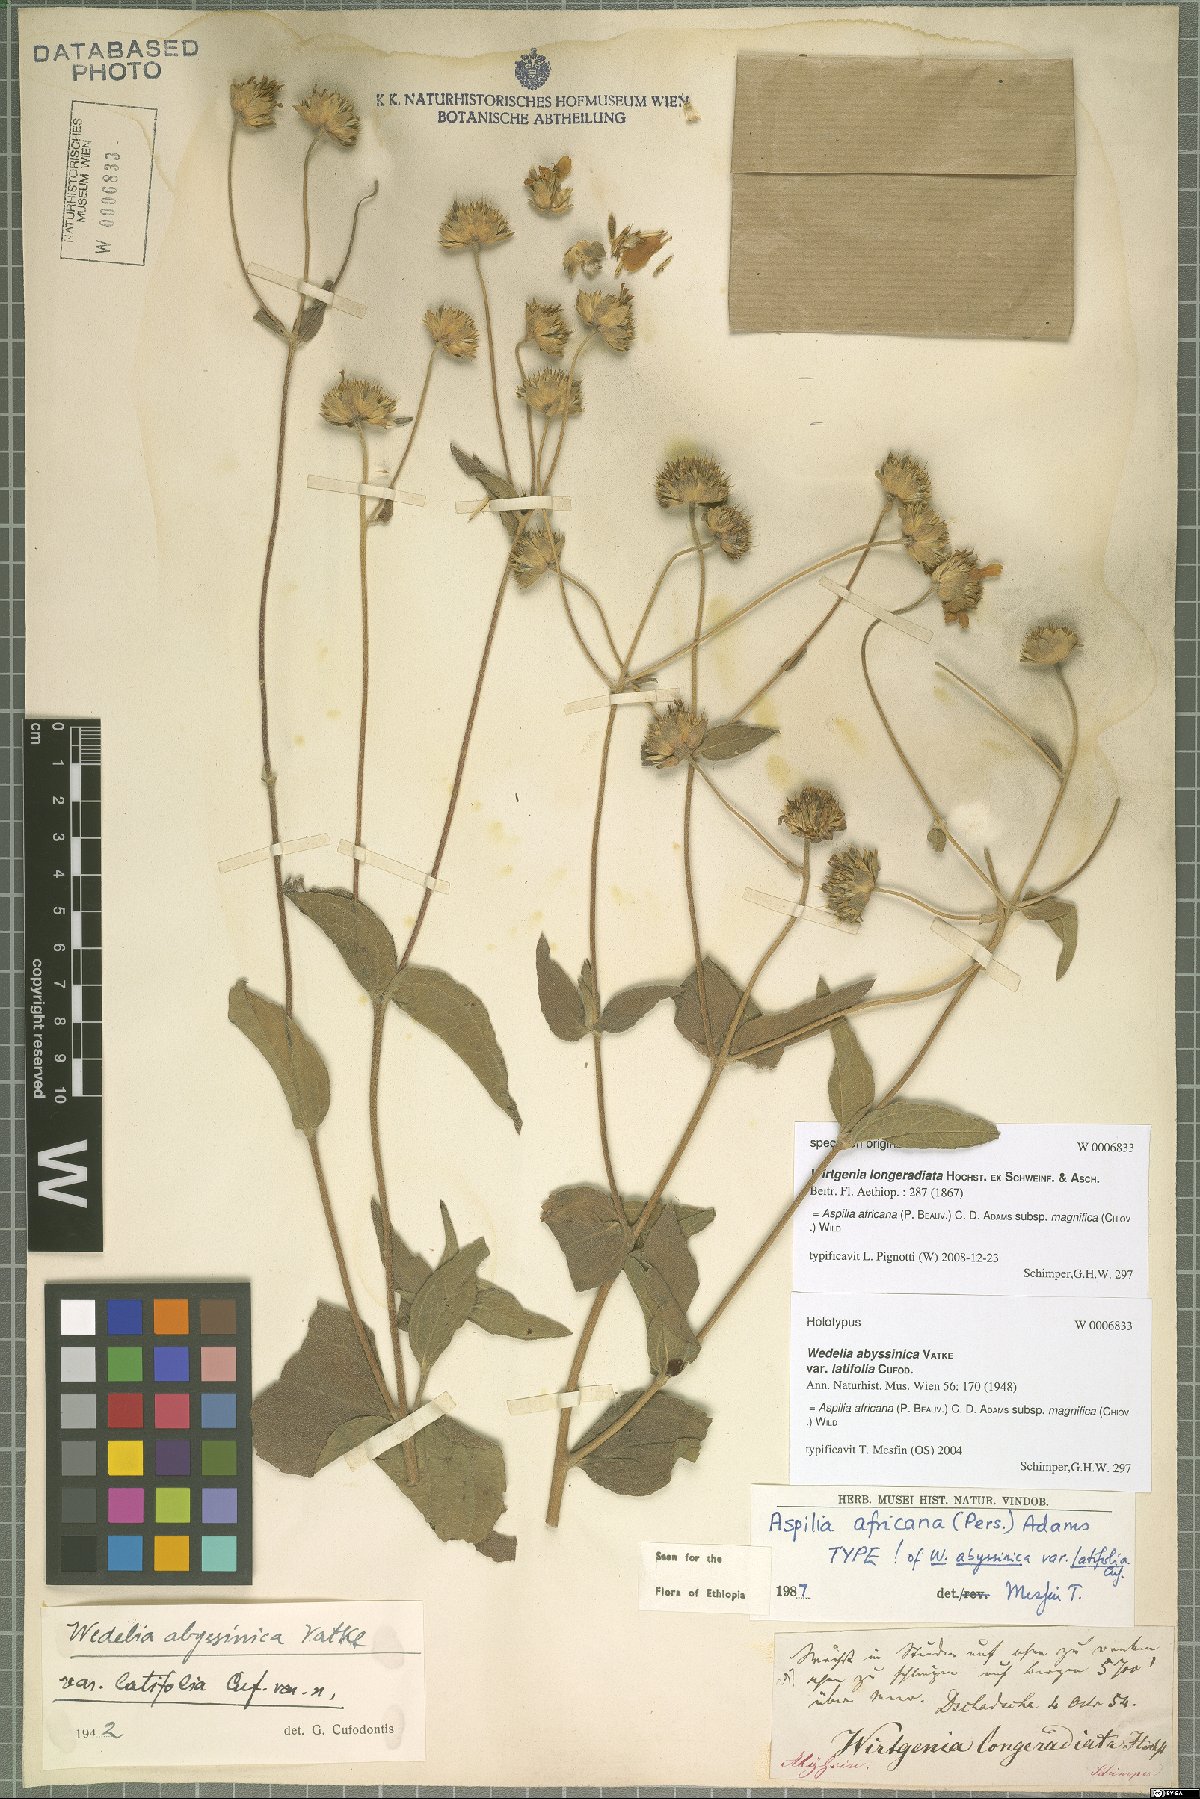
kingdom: Plantae
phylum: Tracheophyta
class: Magnoliopsida
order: Asterales
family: Asteraceae
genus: Aspilia
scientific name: Aspilia africana
